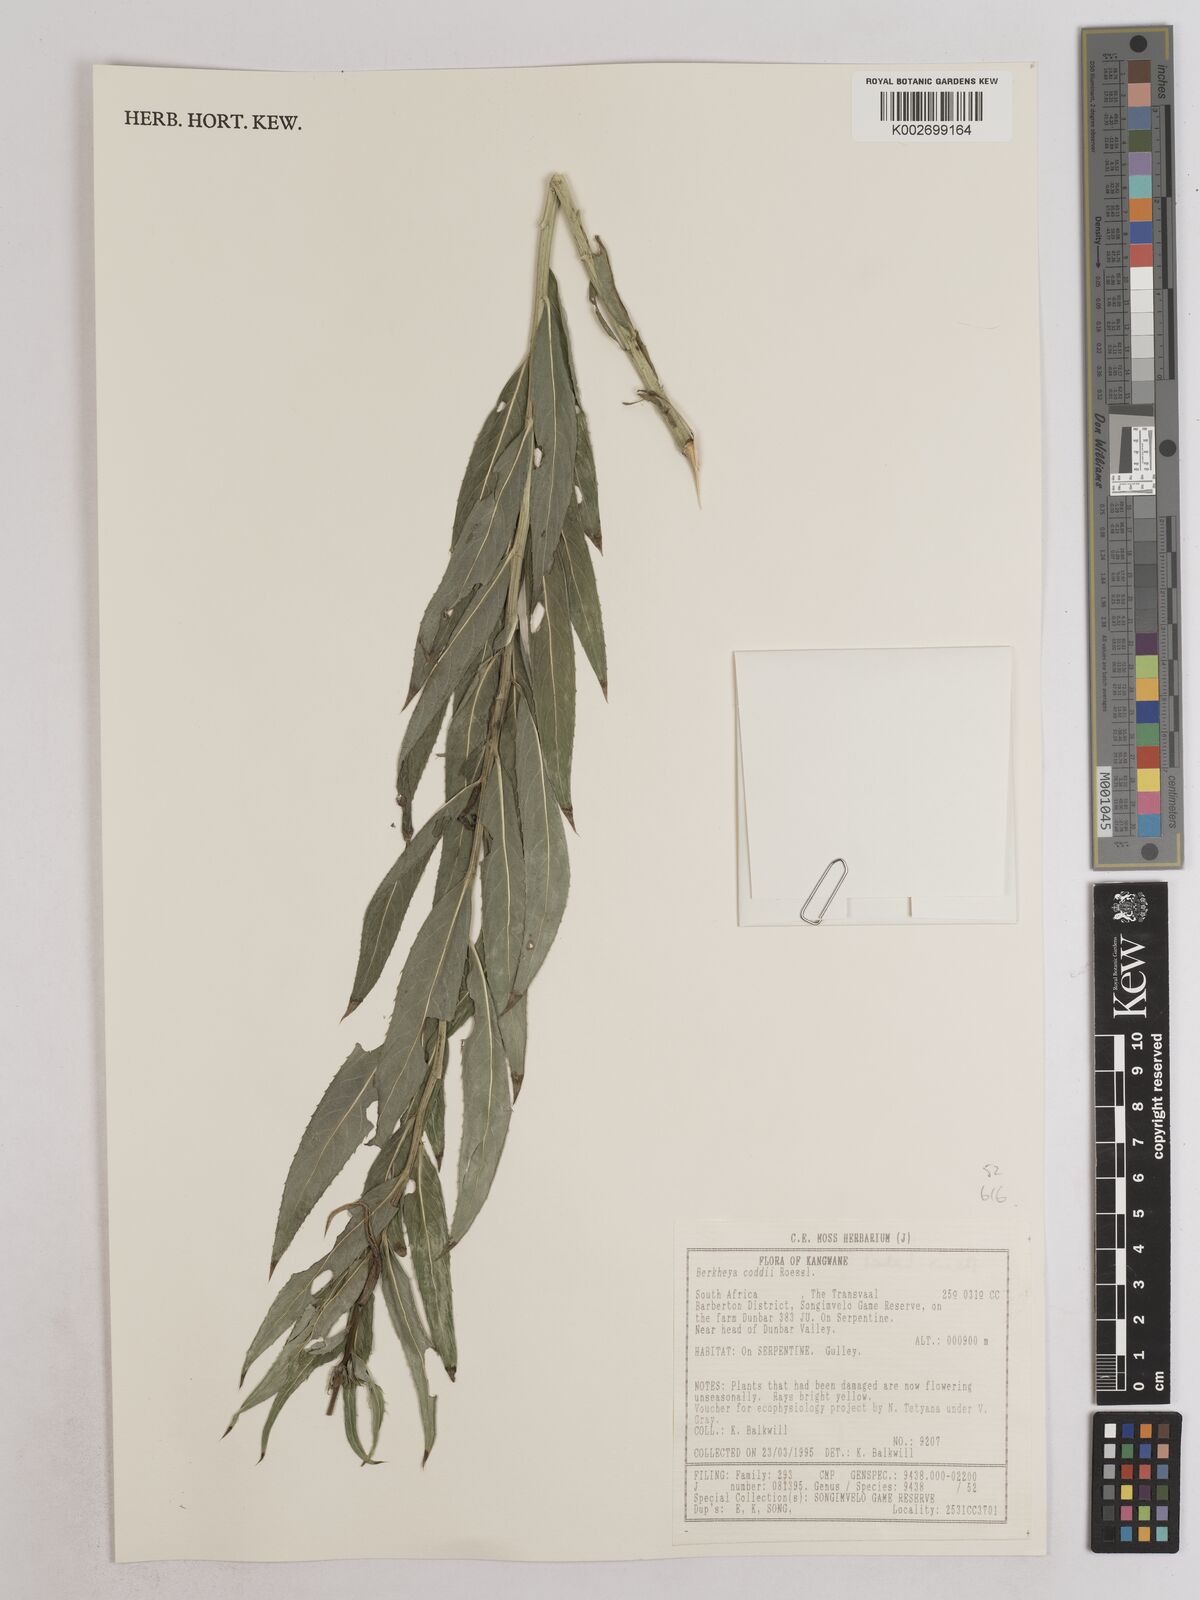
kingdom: Plantae
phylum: Tracheophyta
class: Magnoliopsida
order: Asterales
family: Asteraceae
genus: Berkheya
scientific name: Berkheya coddii
